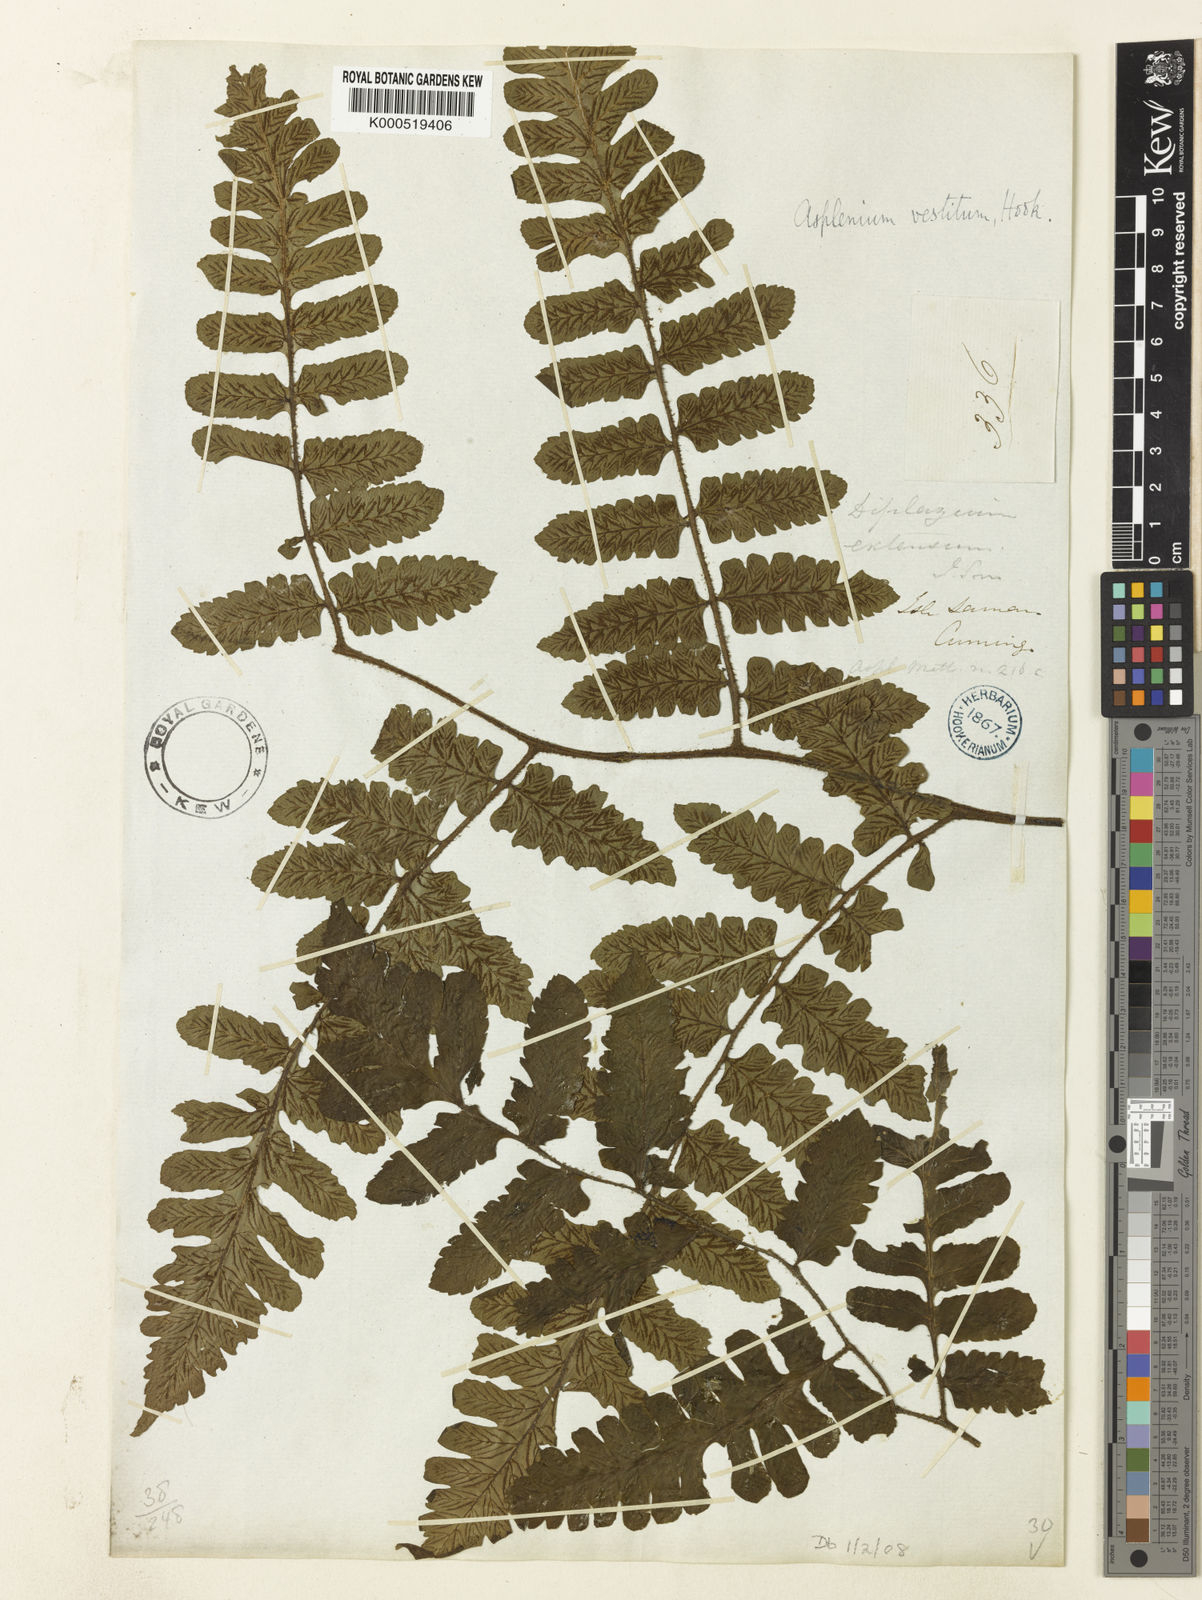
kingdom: Plantae
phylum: Tracheophyta
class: Polypodiopsida
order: Polypodiales
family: Athyriaceae
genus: Diplazium
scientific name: Diplazium vestitum
